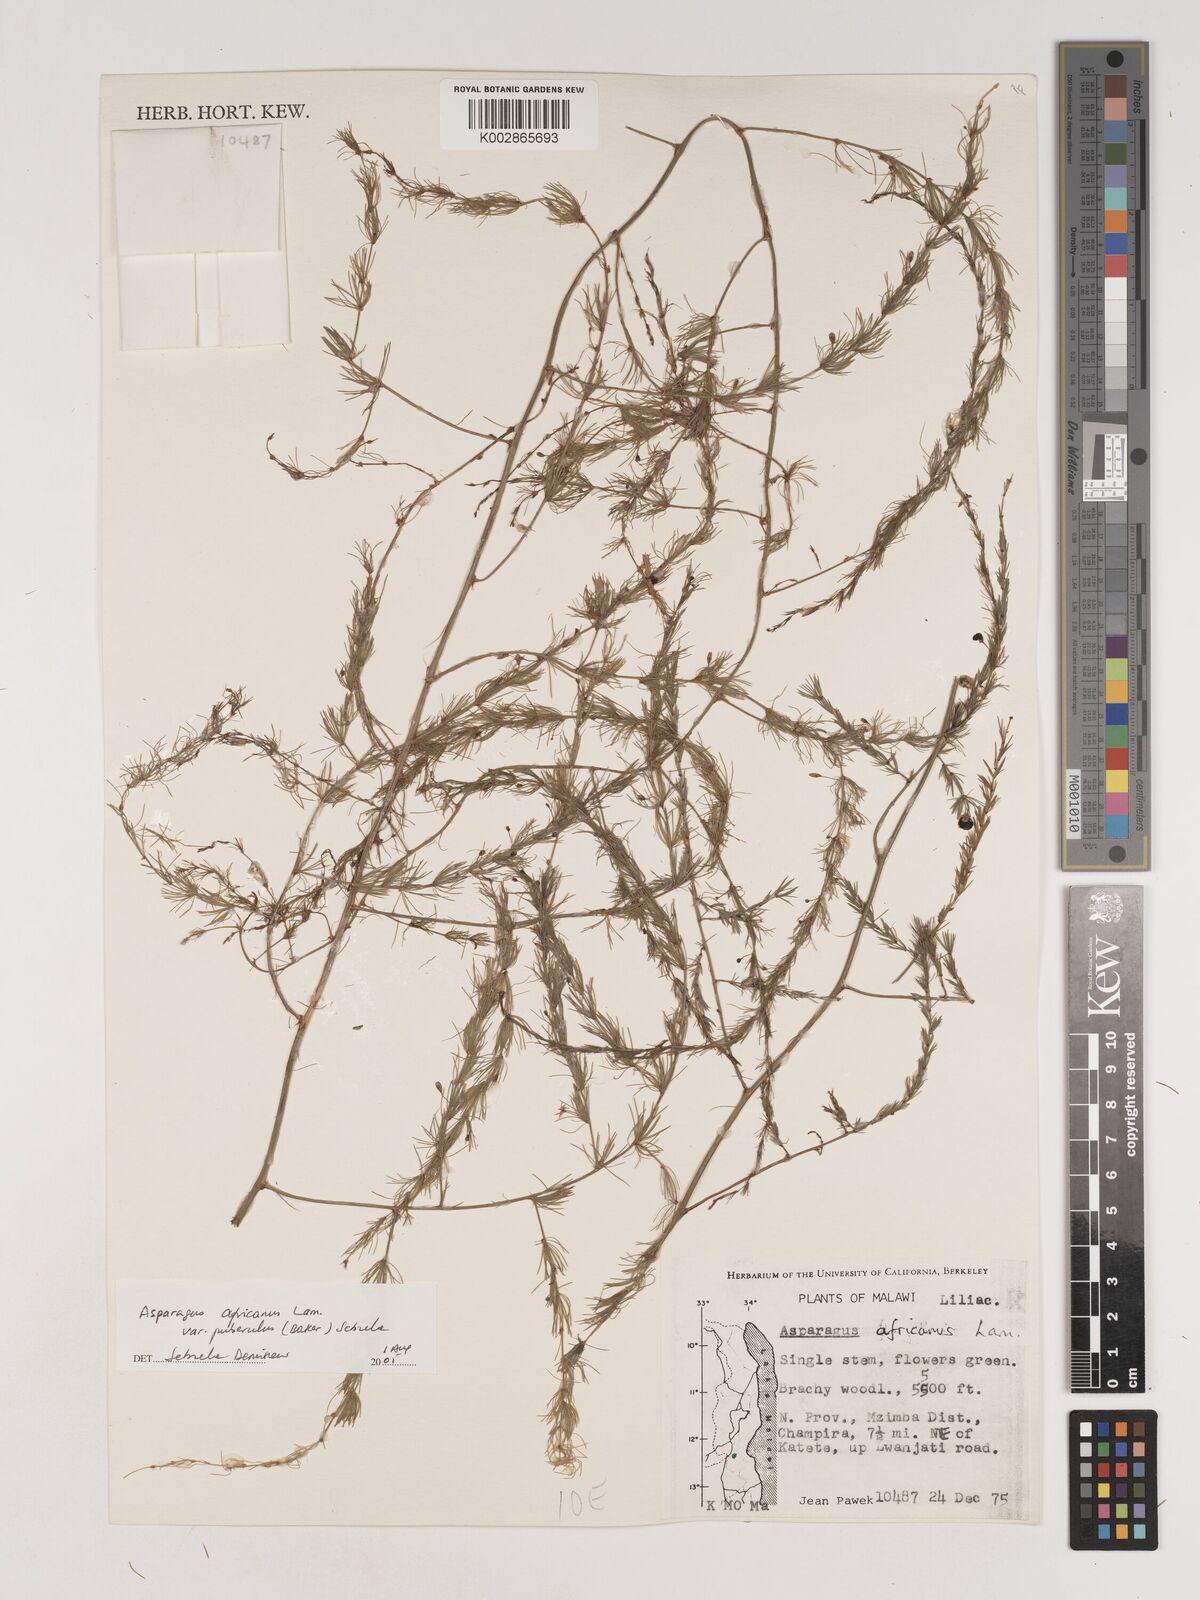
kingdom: Plantae
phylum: Tracheophyta
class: Liliopsida
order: Asparagales
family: Asparagaceae
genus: Asparagus
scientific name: Asparagus
